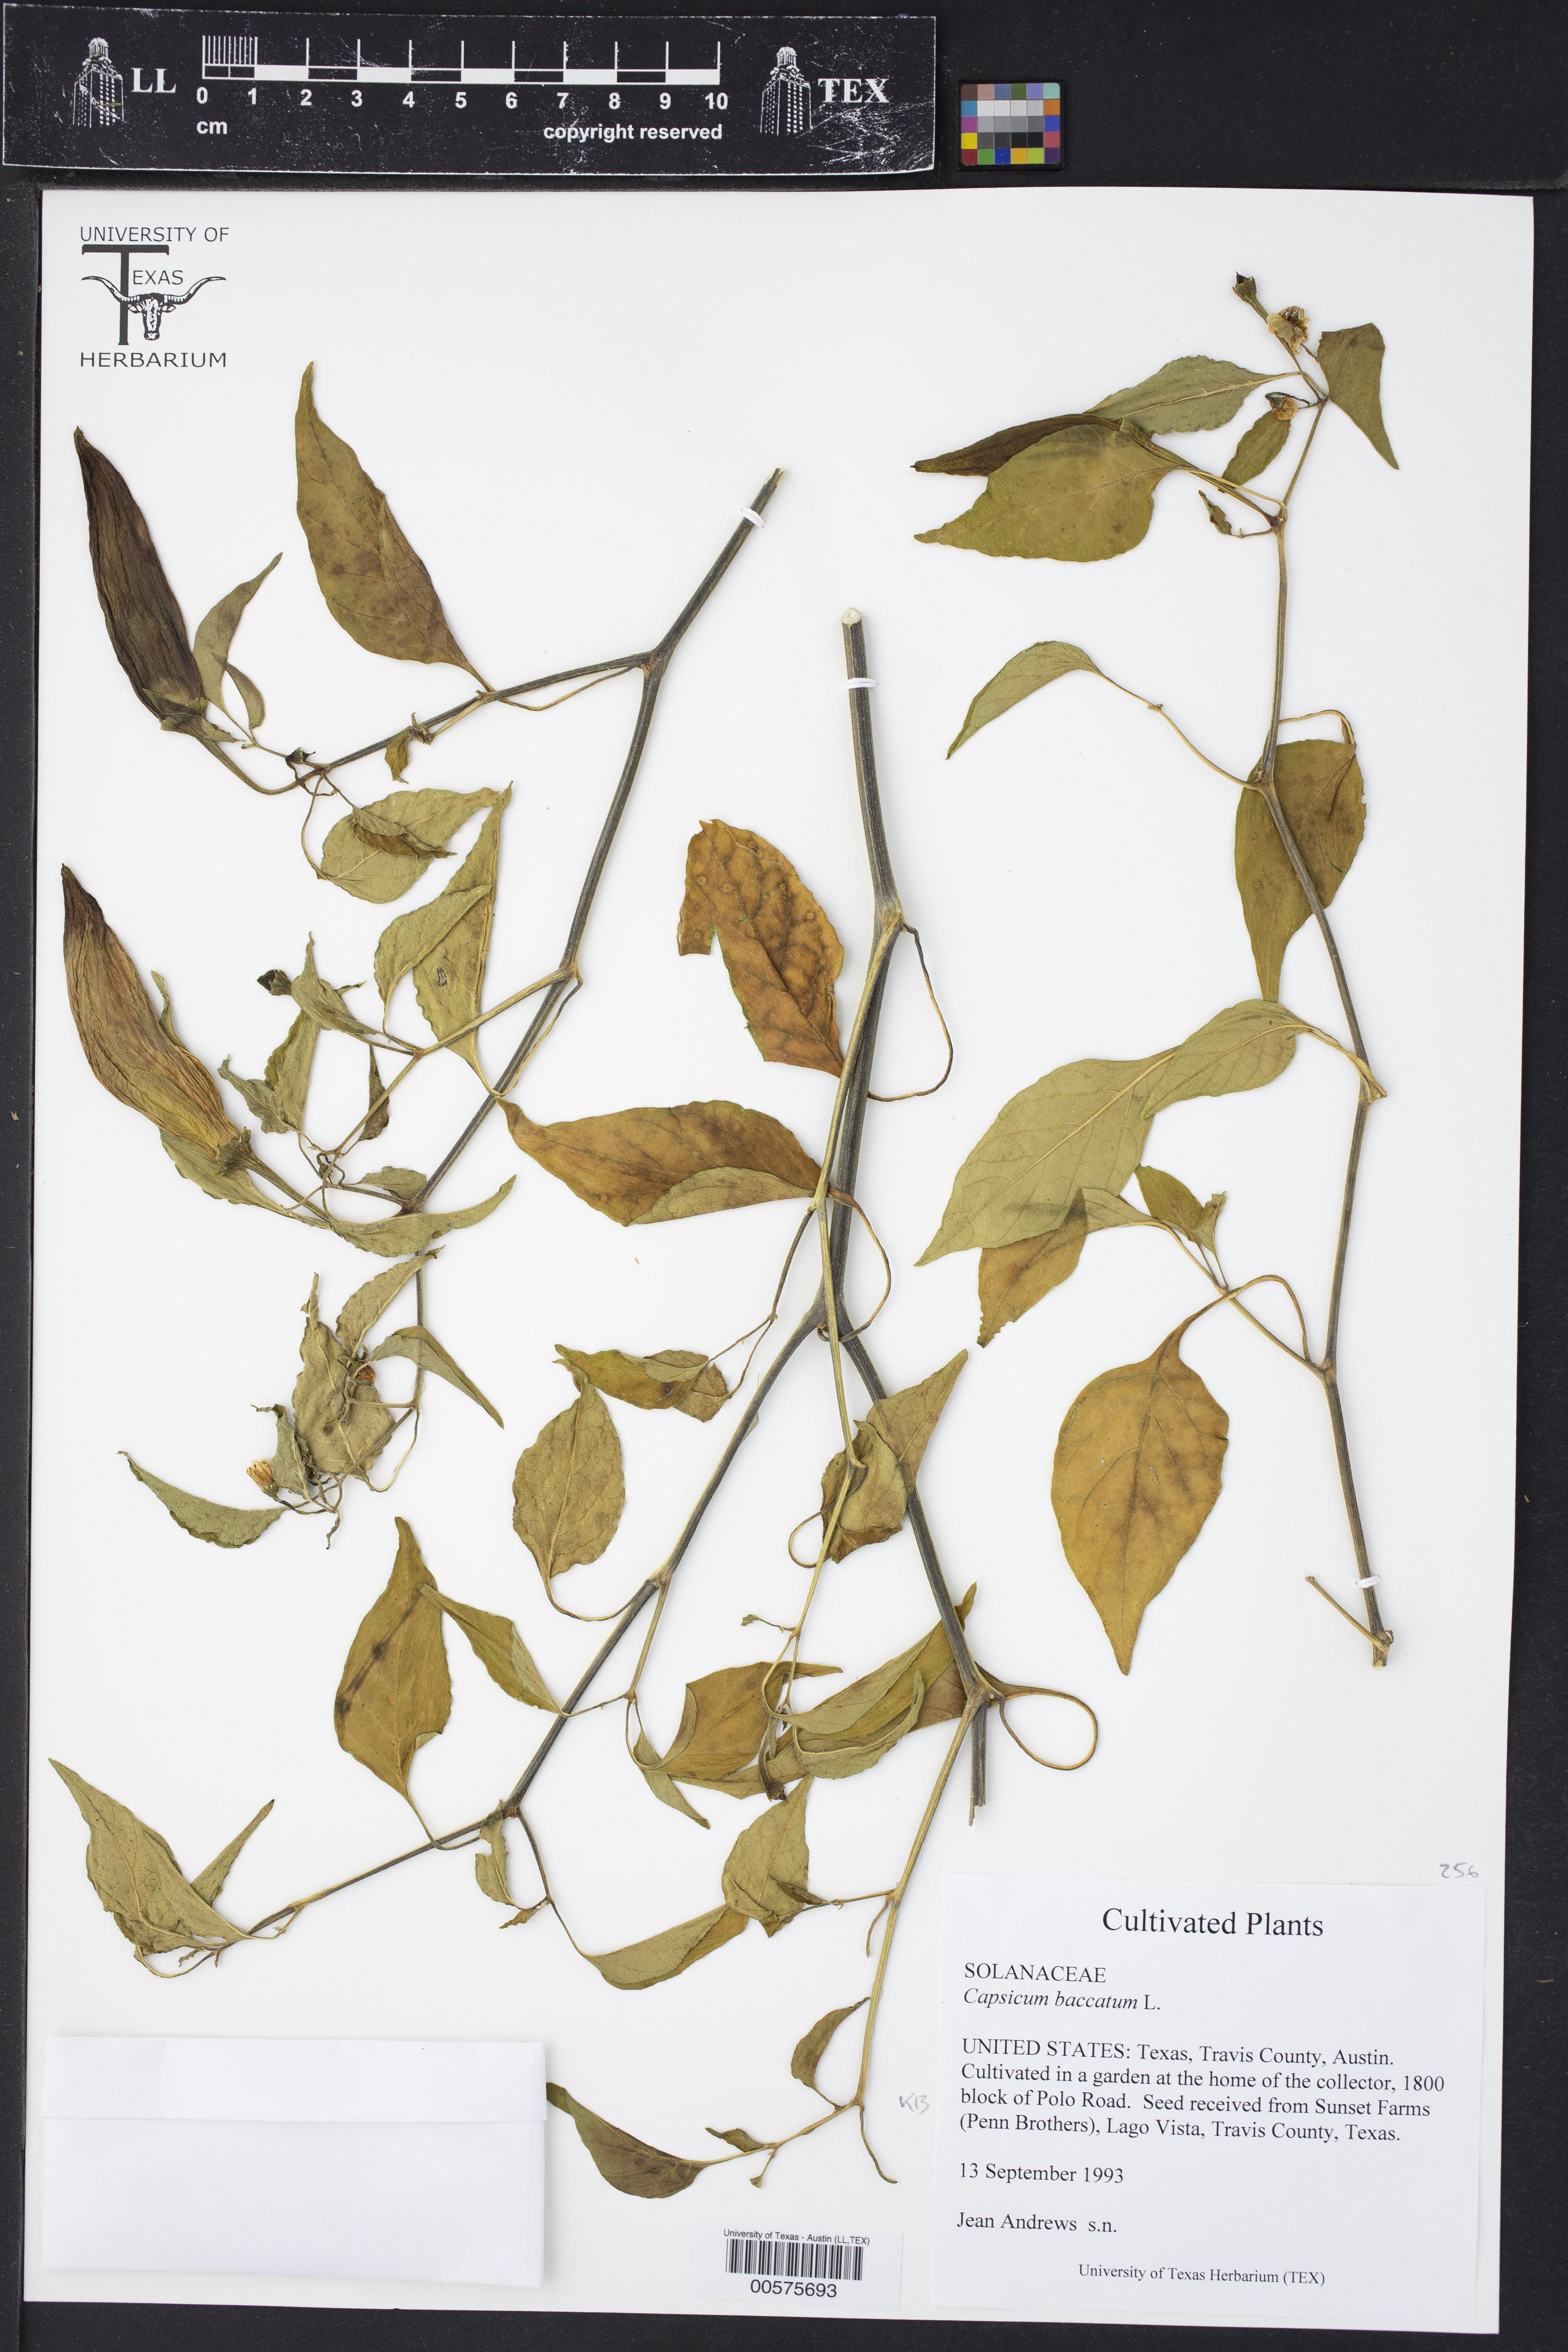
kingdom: Plantae
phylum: Tracheophyta
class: Magnoliopsida
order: Solanales
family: Solanaceae
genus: Capsicum
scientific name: Capsicum baccatum
